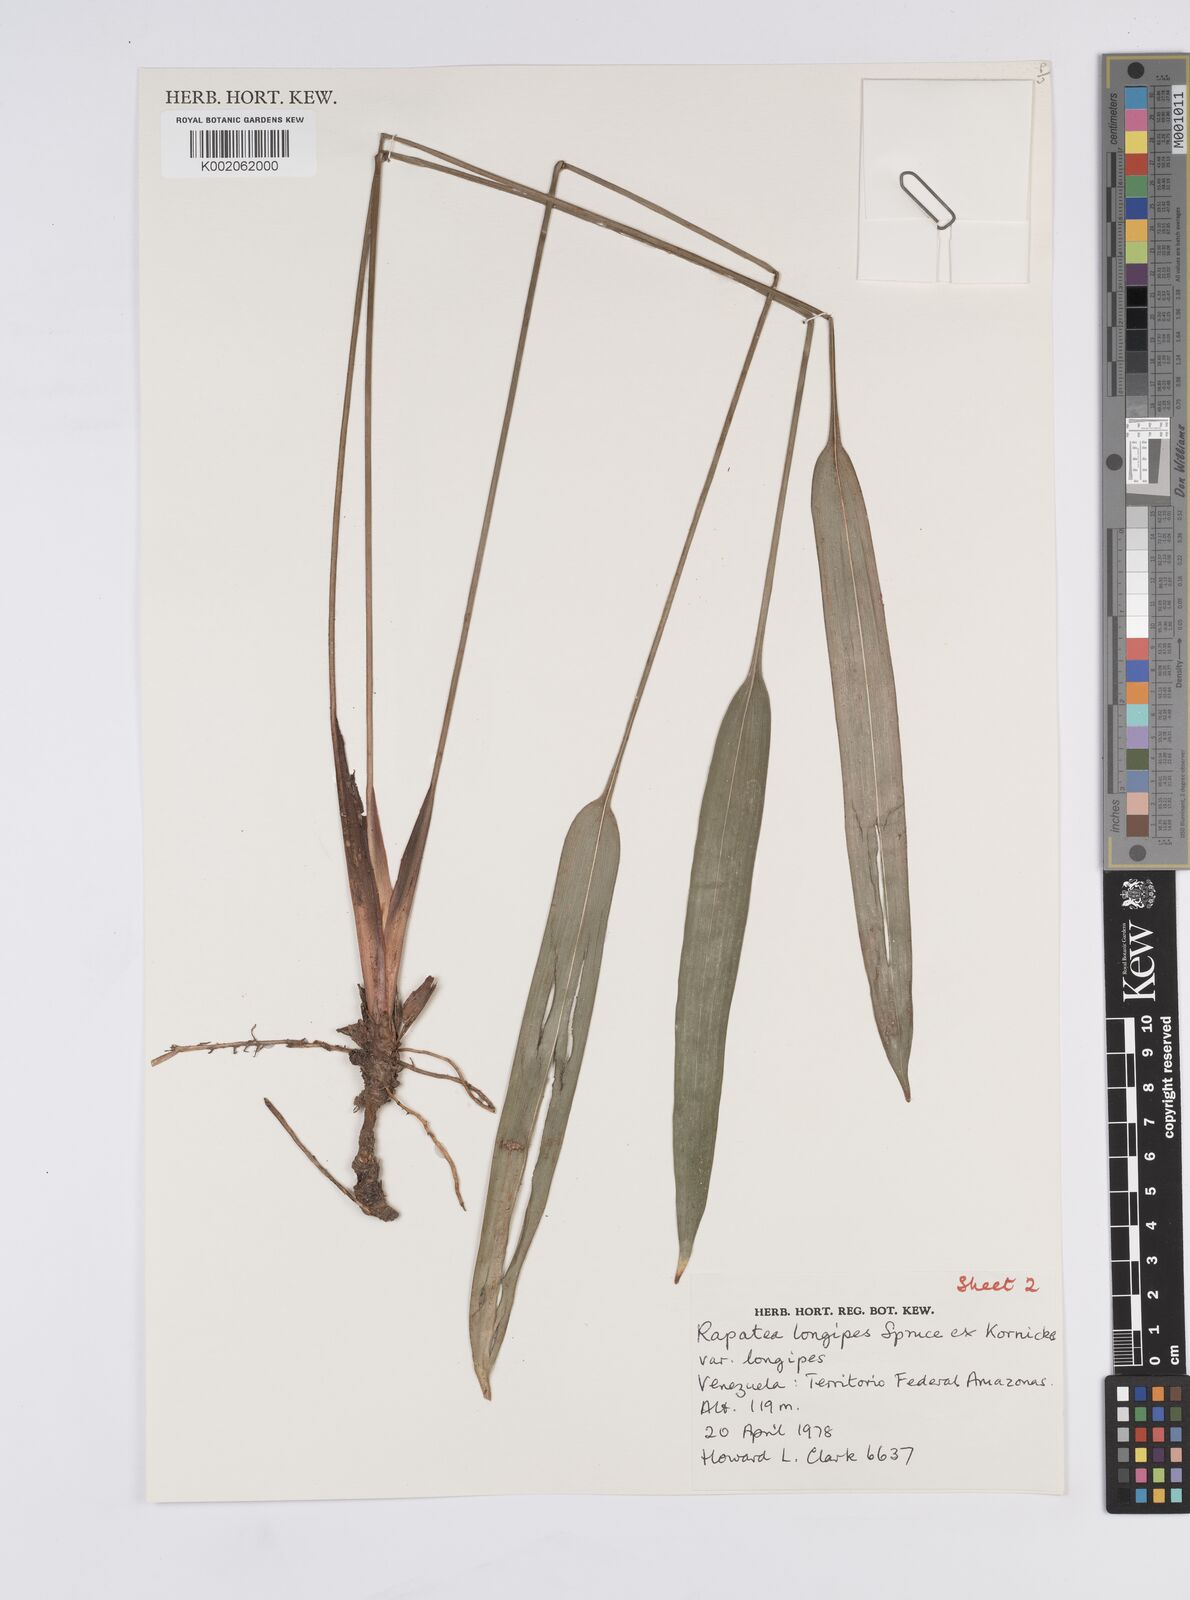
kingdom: Plantae
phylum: Tracheophyta
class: Liliopsida
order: Poales
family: Rapateaceae
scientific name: Rapateaceae
